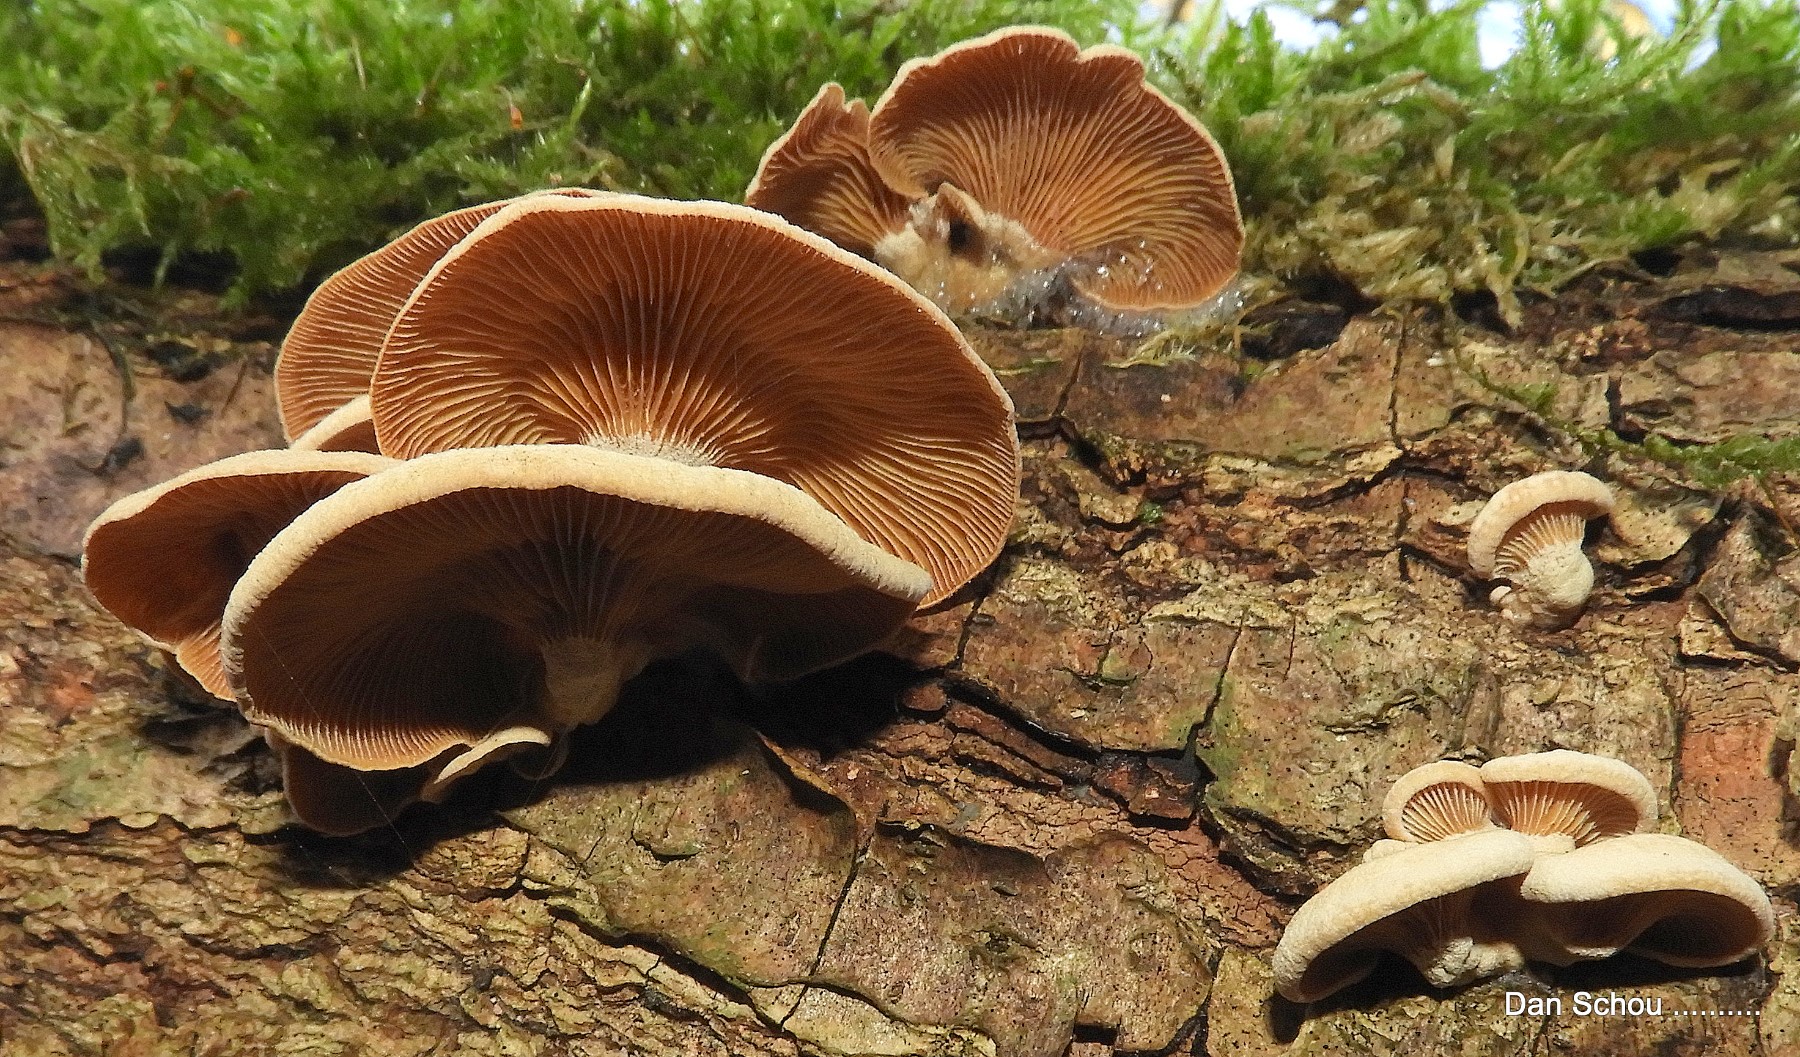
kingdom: Fungi
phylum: Basidiomycota
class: Agaricomycetes
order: Agaricales
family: Mycenaceae
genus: Panellus
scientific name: Panellus stipticus
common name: kliddet epaulethat
